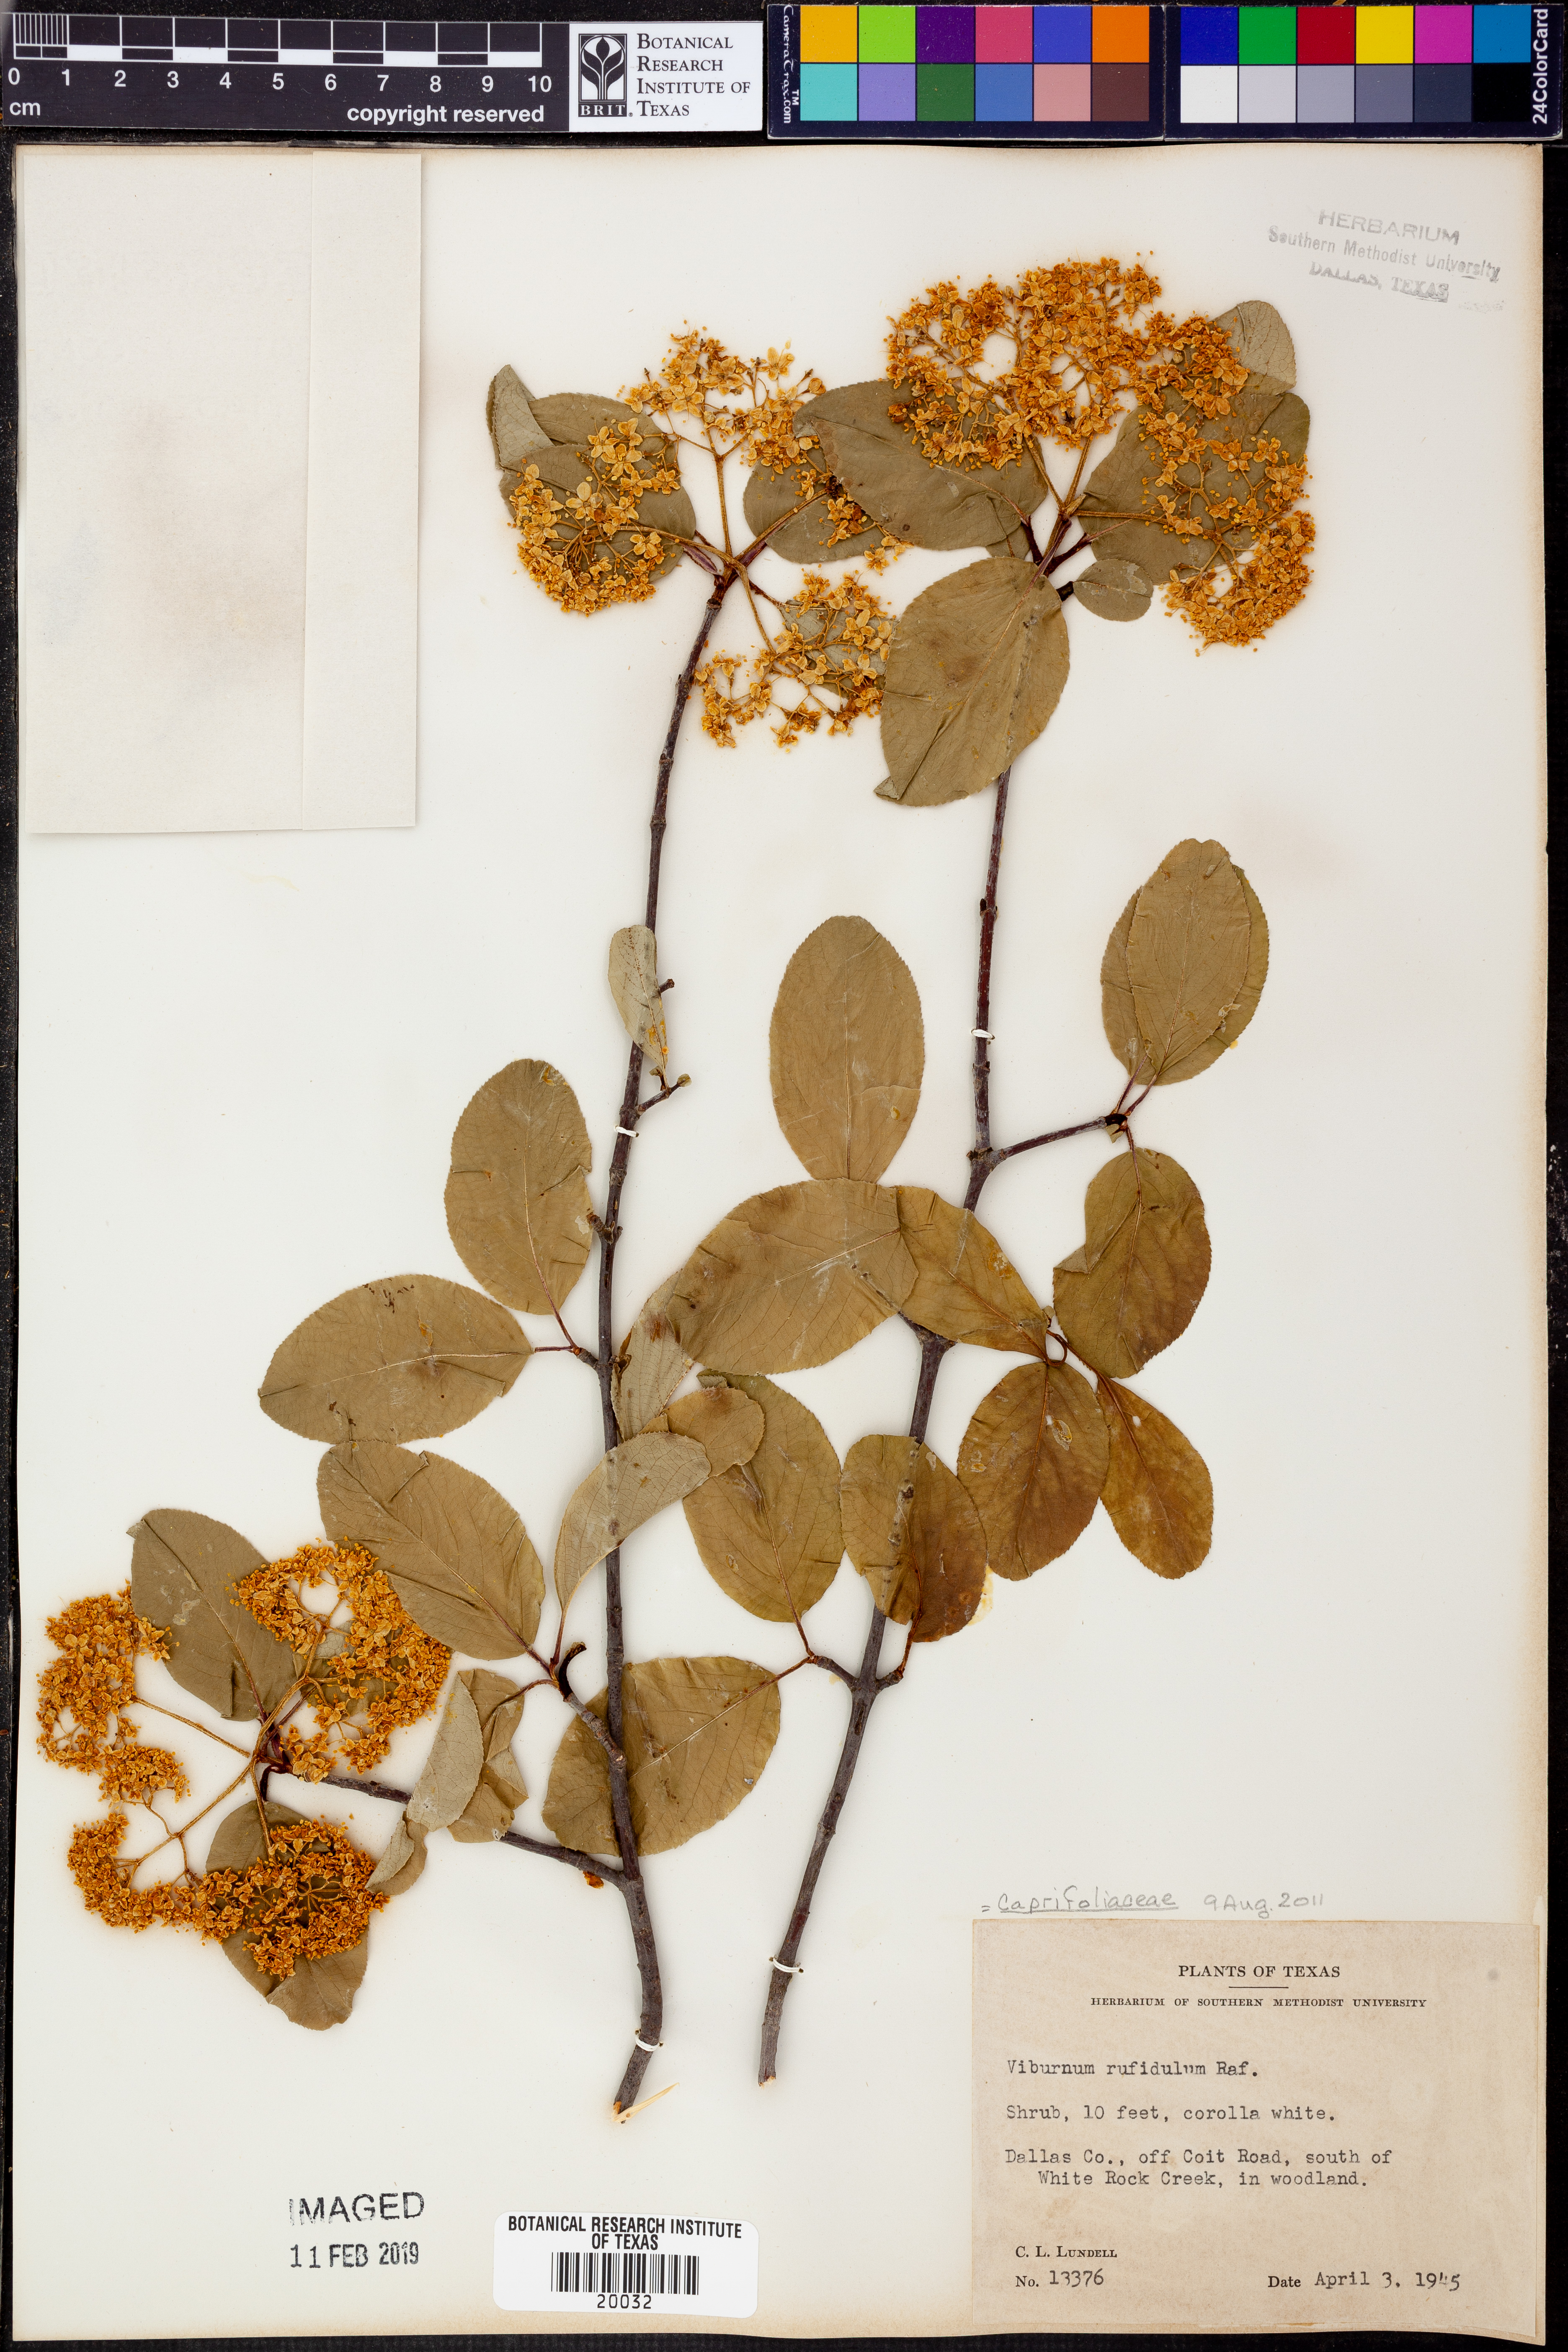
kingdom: Plantae
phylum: Tracheophyta
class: Magnoliopsida
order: Dipsacales
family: Viburnaceae
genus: Viburnum
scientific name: Viburnum rufidulum
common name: Blue haw
